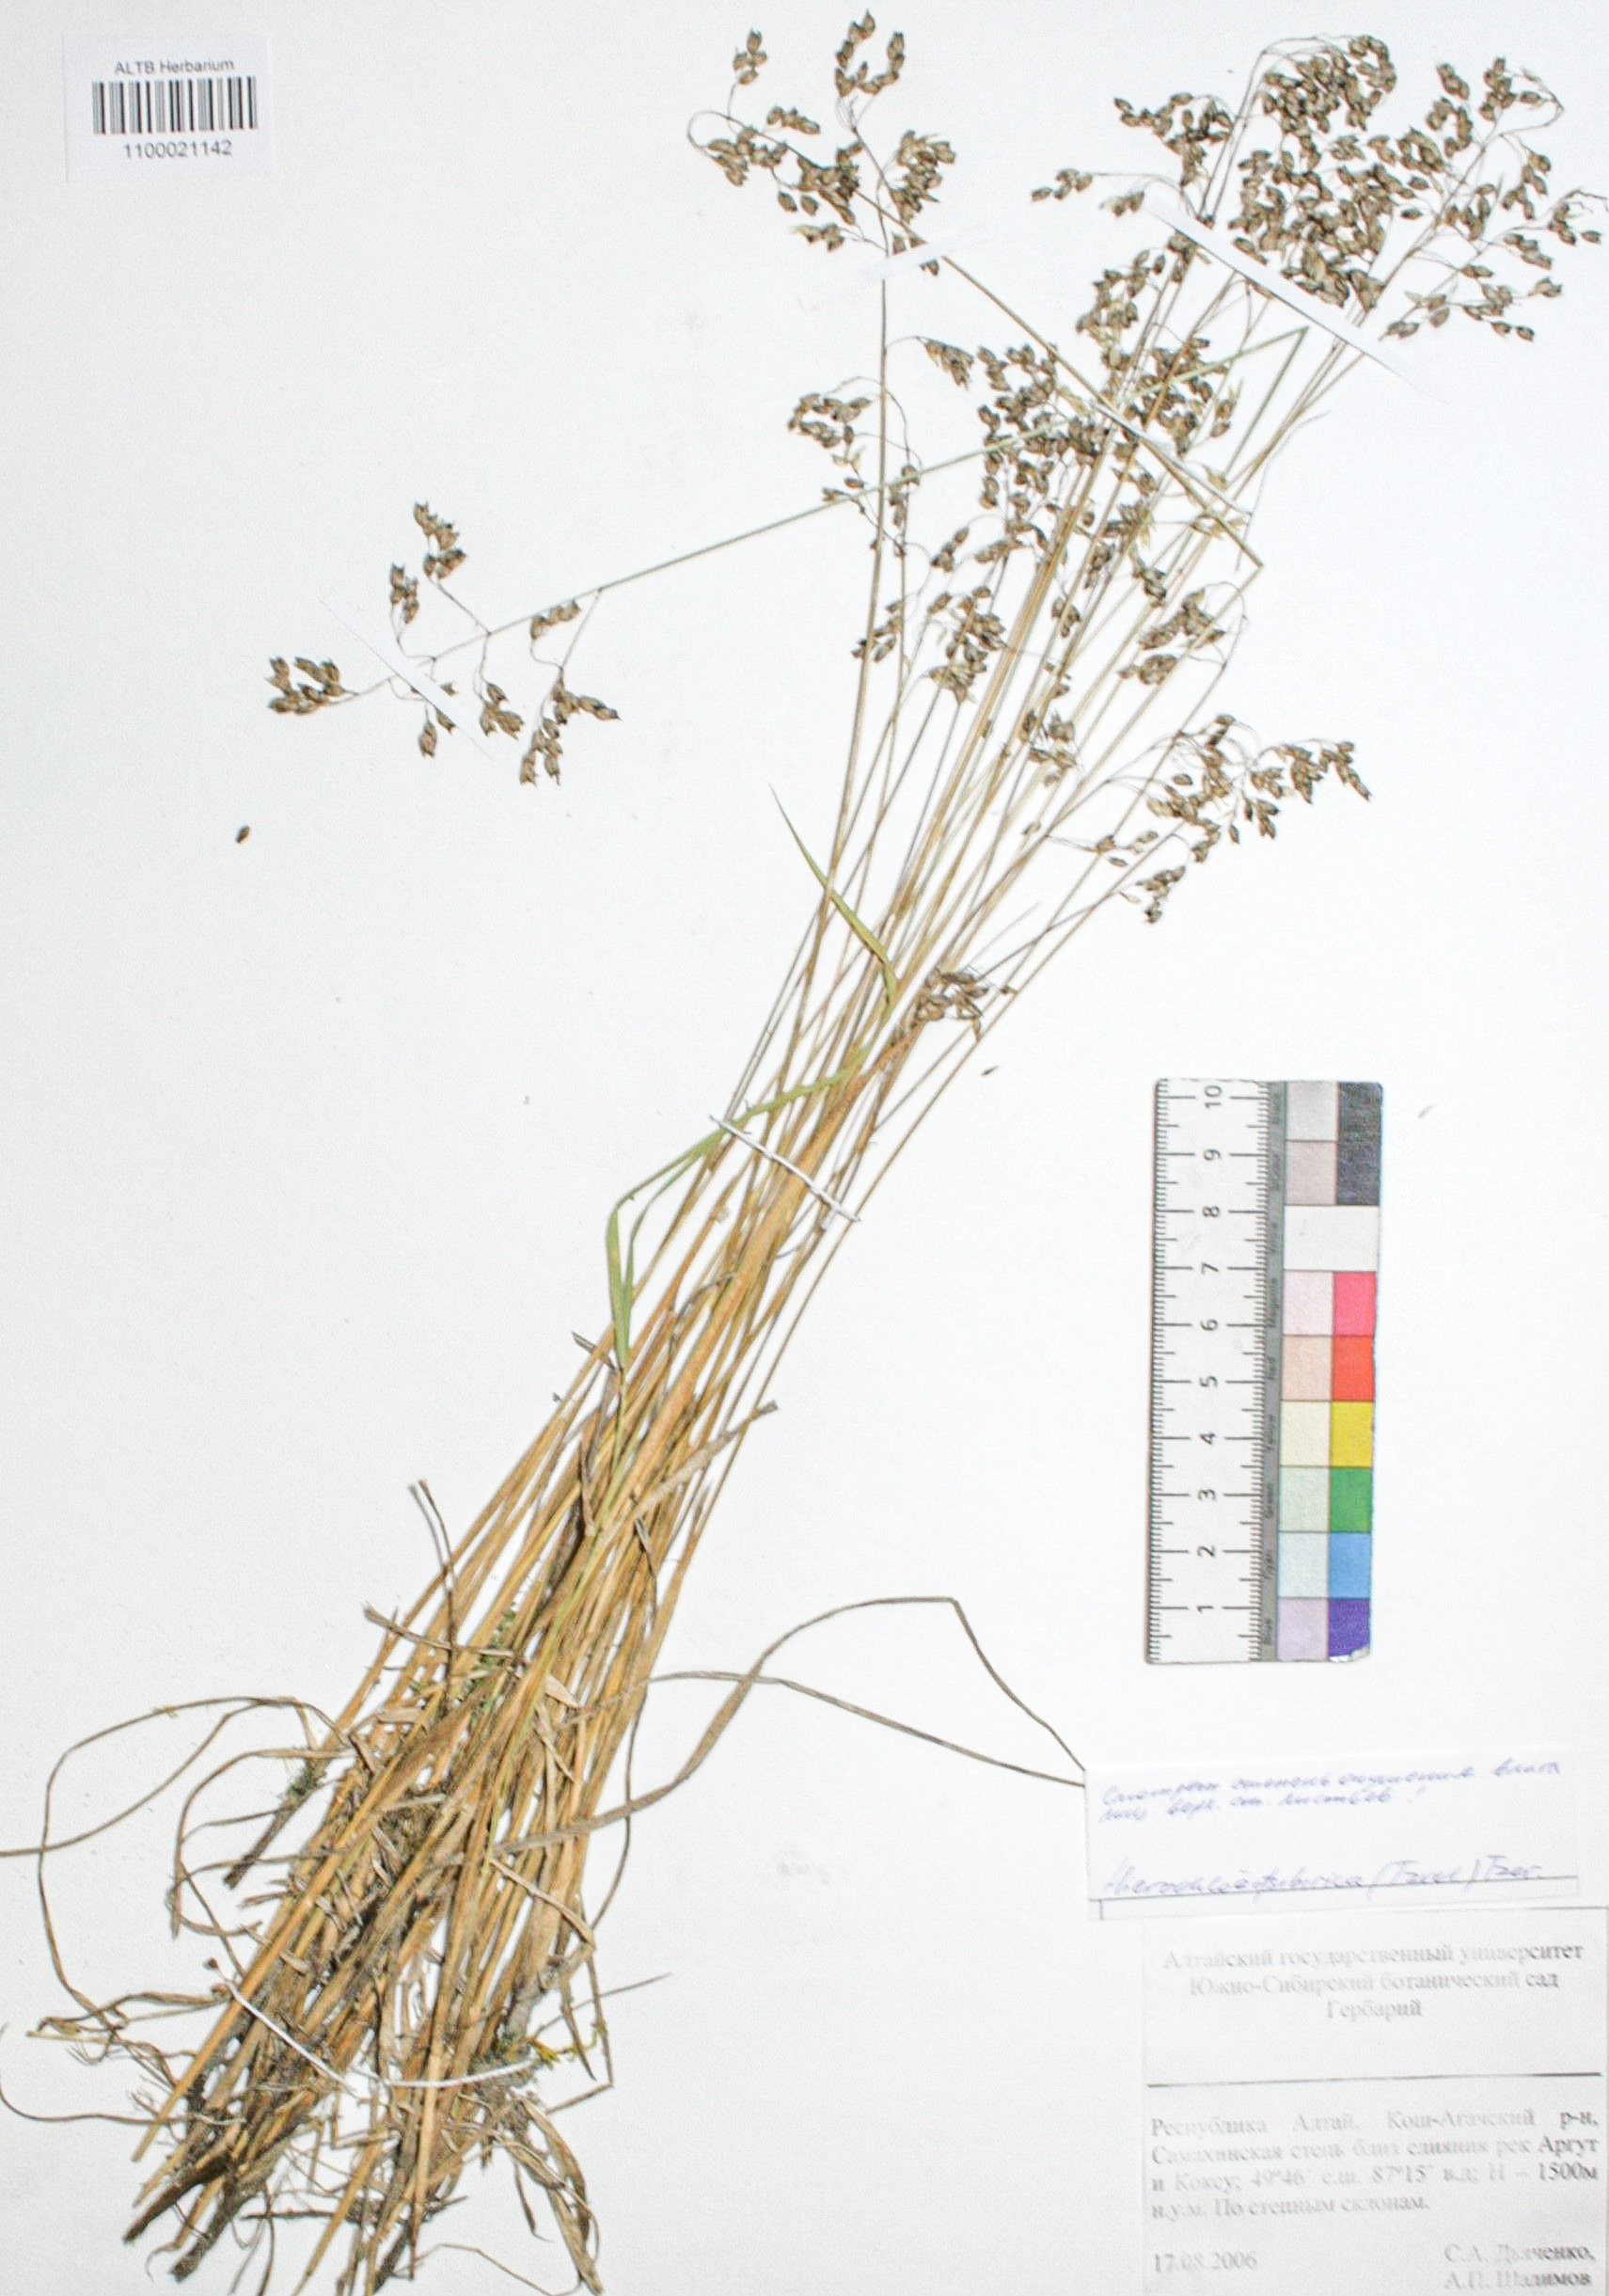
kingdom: Plantae
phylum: Tracheophyta
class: Liliopsida
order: Poales
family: Poaceae
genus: Anthoxanthum
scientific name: Anthoxanthum glabrum
